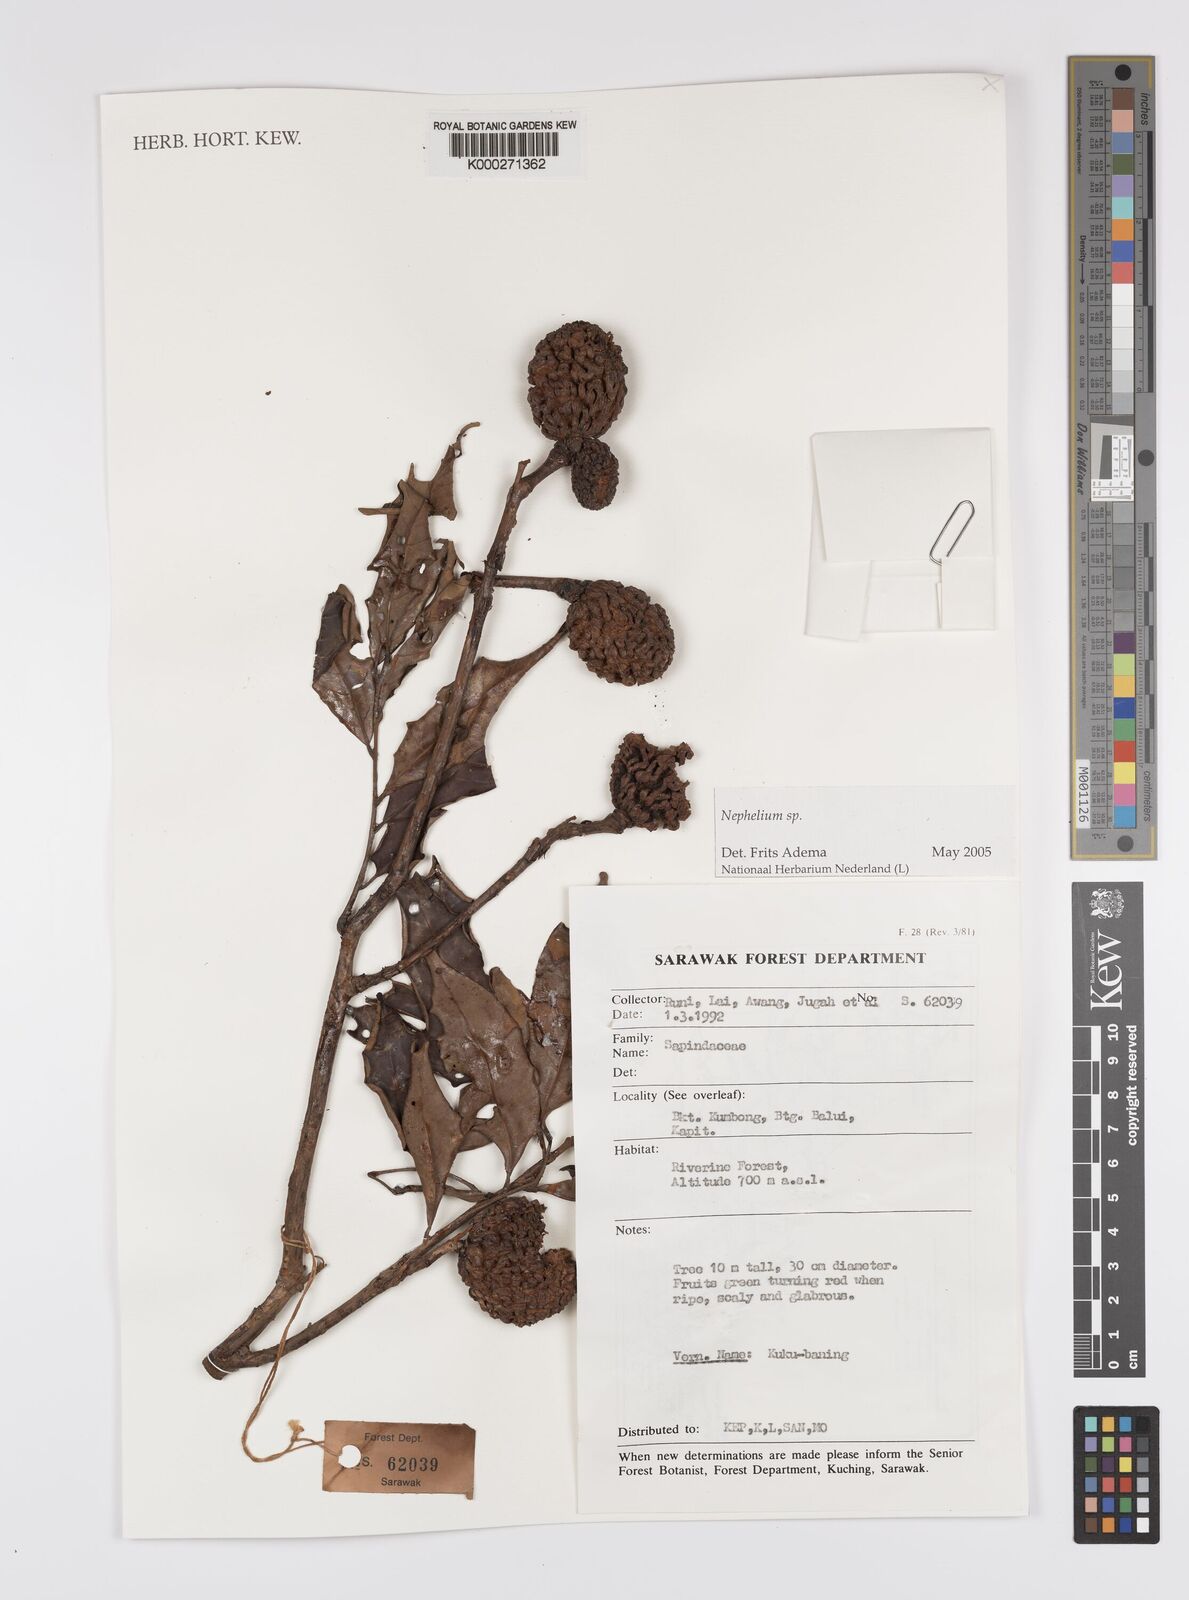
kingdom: Plantae
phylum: Tracheophyta
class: Magnoliopsida
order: Sapindales
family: Sapindaceae
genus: Nephelium
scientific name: Nephelium
